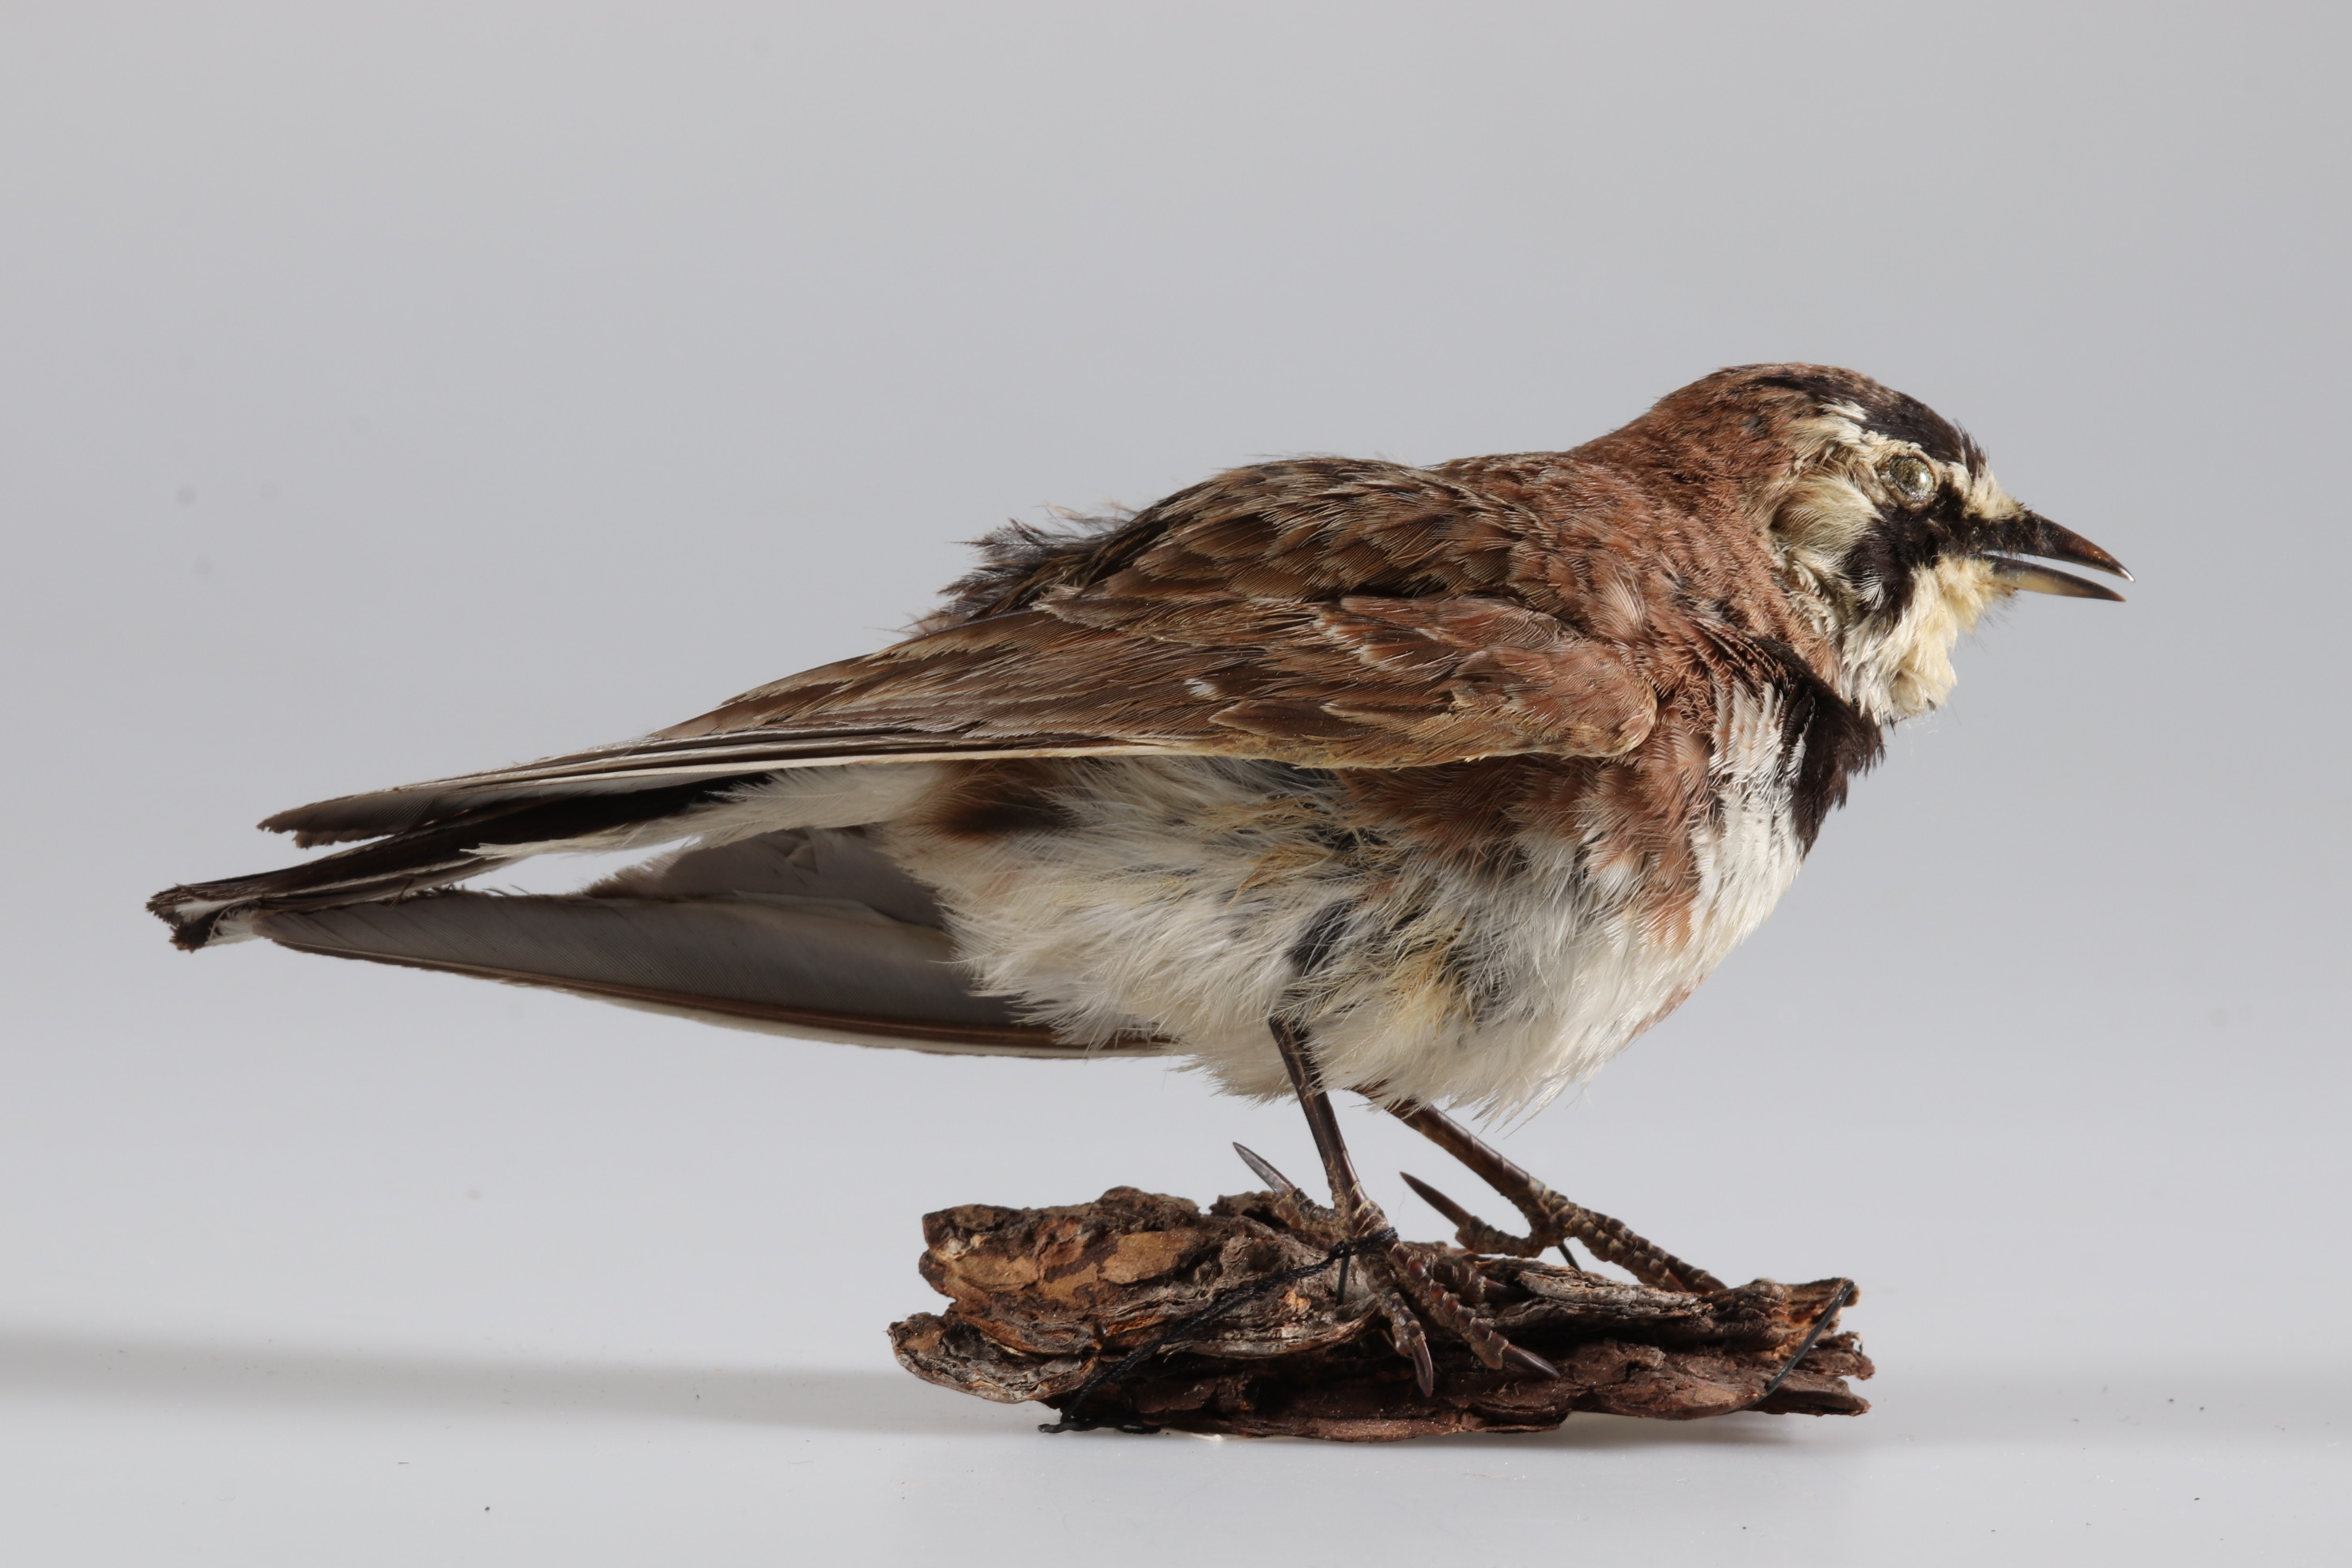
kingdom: Animalia
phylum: Chordata
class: Aves
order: Passeriformes
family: Alaudidae
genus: Eremophila
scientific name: Eremophila alpestris
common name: Horned lark
